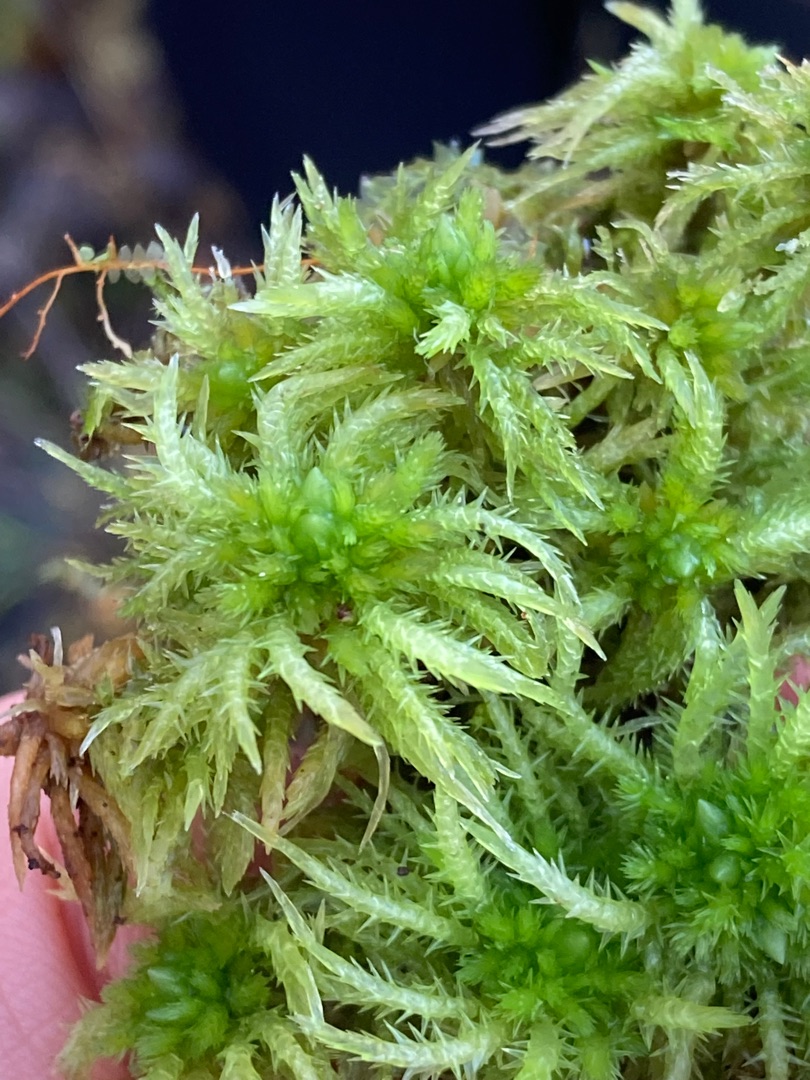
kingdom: Plantae
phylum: Bryophyta
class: Sphagnopsida
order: Sphagnales
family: Sphagnaceae
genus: Sphagnum
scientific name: Sphagnum squarrosum
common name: Udspærret tørvemos
